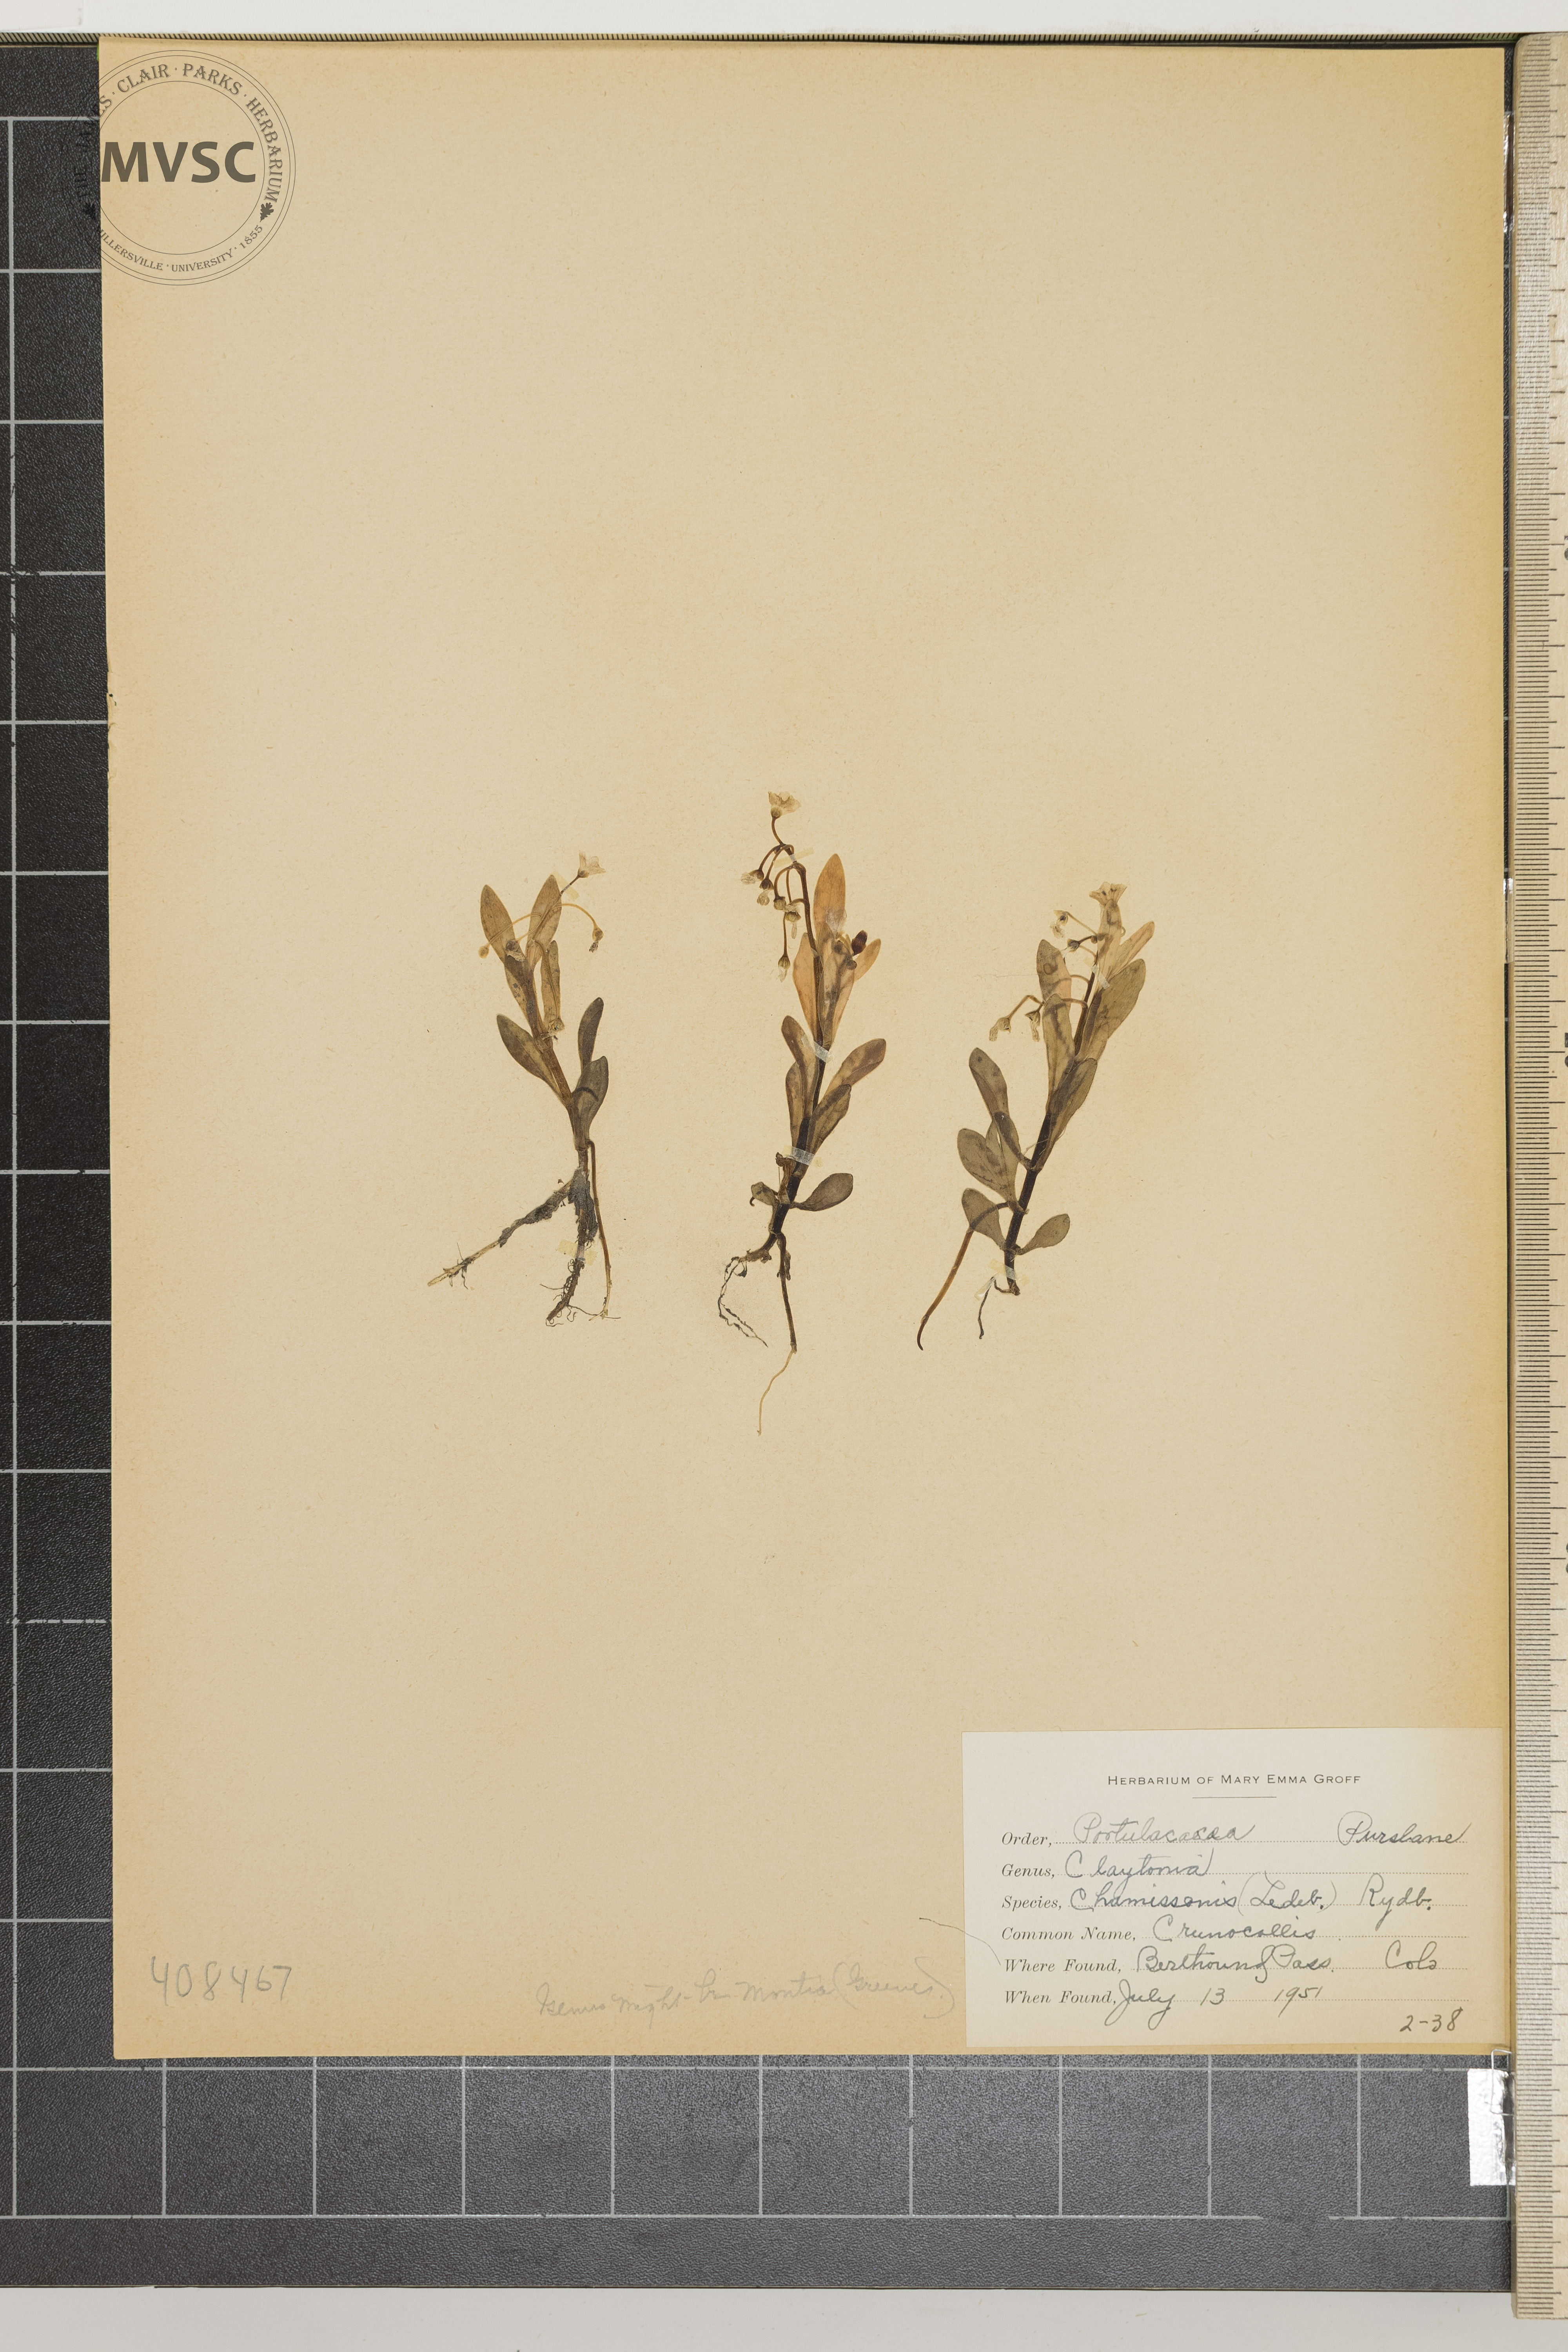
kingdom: Plantae
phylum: Tracheophyta
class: Magnoliopsida
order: Caryophyllales
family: Montiaceae
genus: Montia
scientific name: Montia chamissoi
